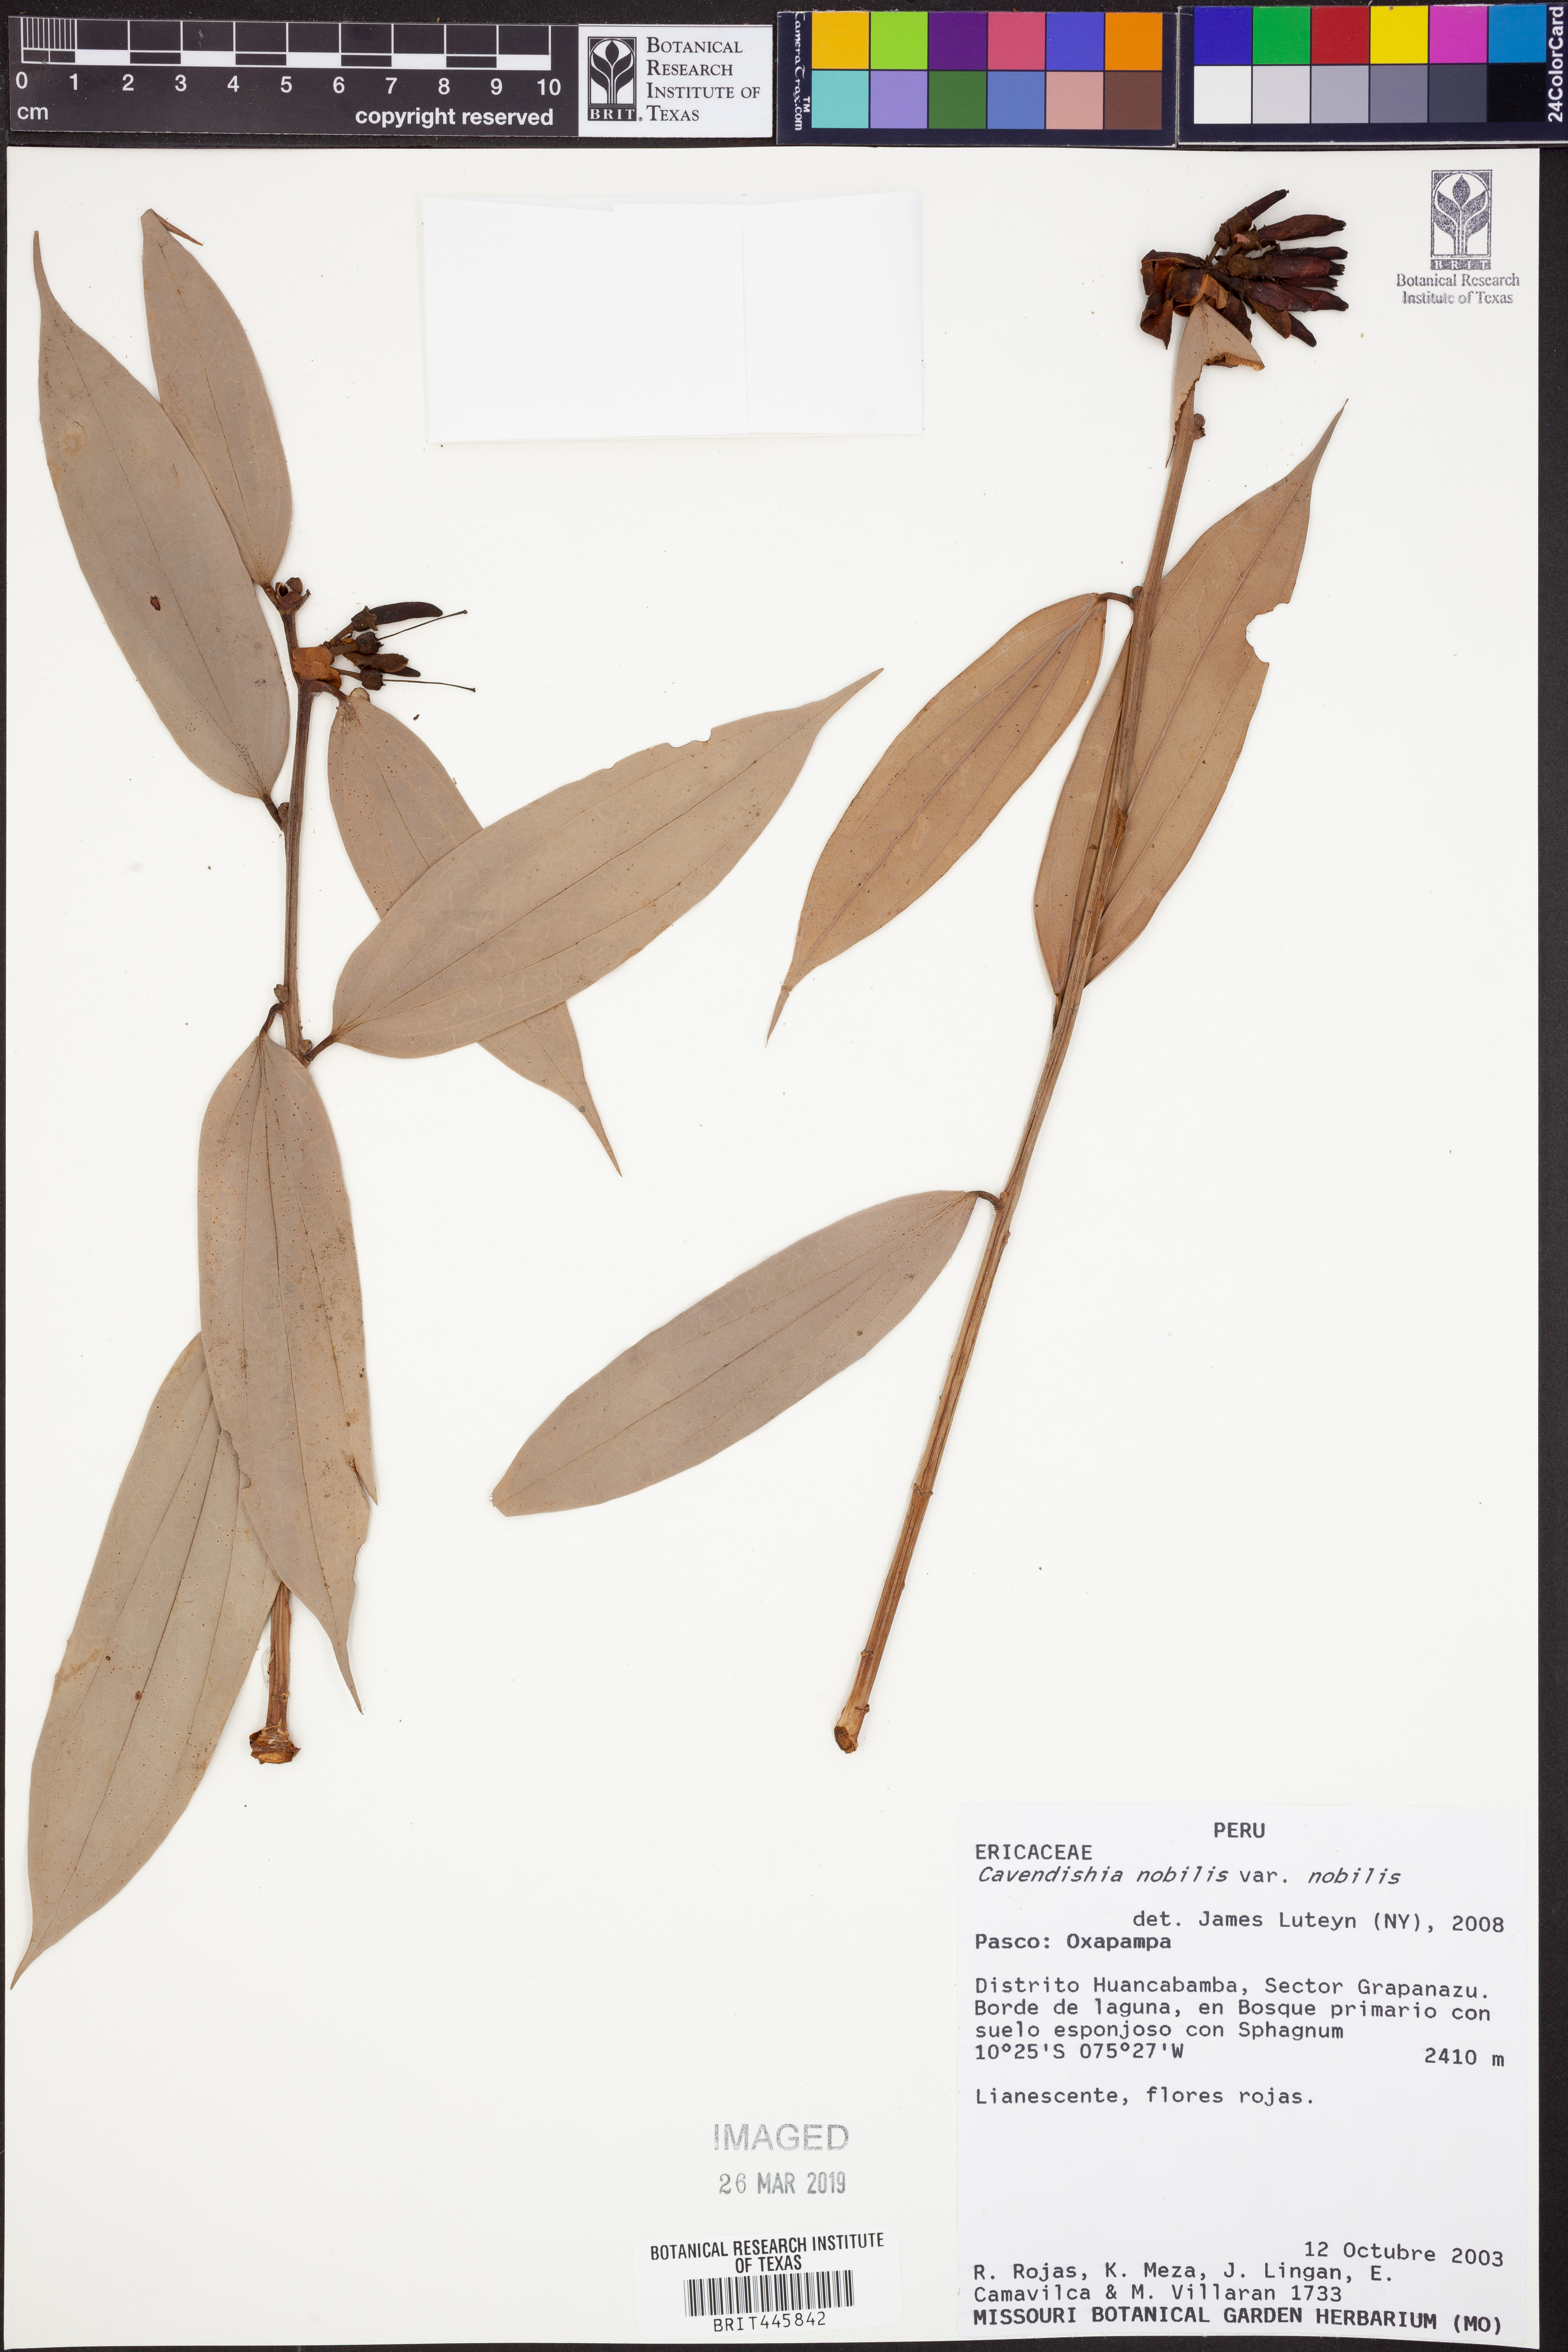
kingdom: Plantae
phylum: Tracheophyta
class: Magnoliopsida
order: Ericales
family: Ericaceae
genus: Cavendishia
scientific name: Cavendishia nobilis
